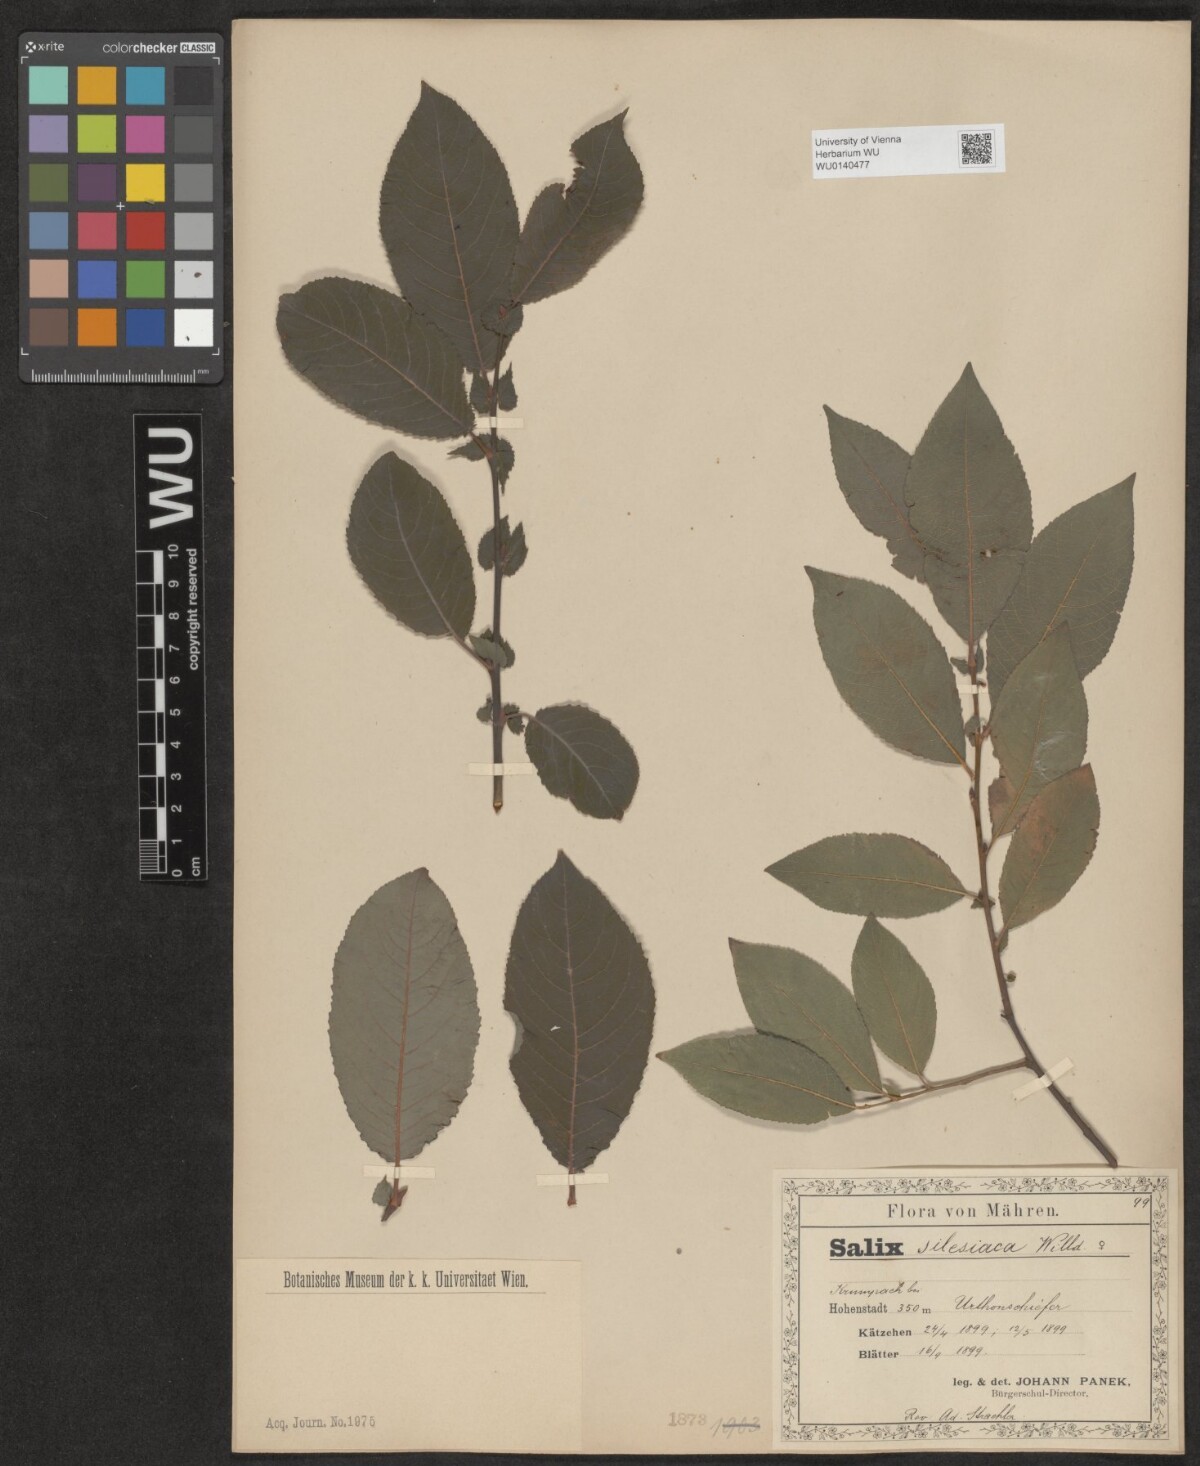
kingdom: Plantae
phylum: Tracheophyta
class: Magnoliopsida
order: Malpighiales
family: Salicaceae
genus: Salix
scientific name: Salix silesiaca
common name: Silesian willow
